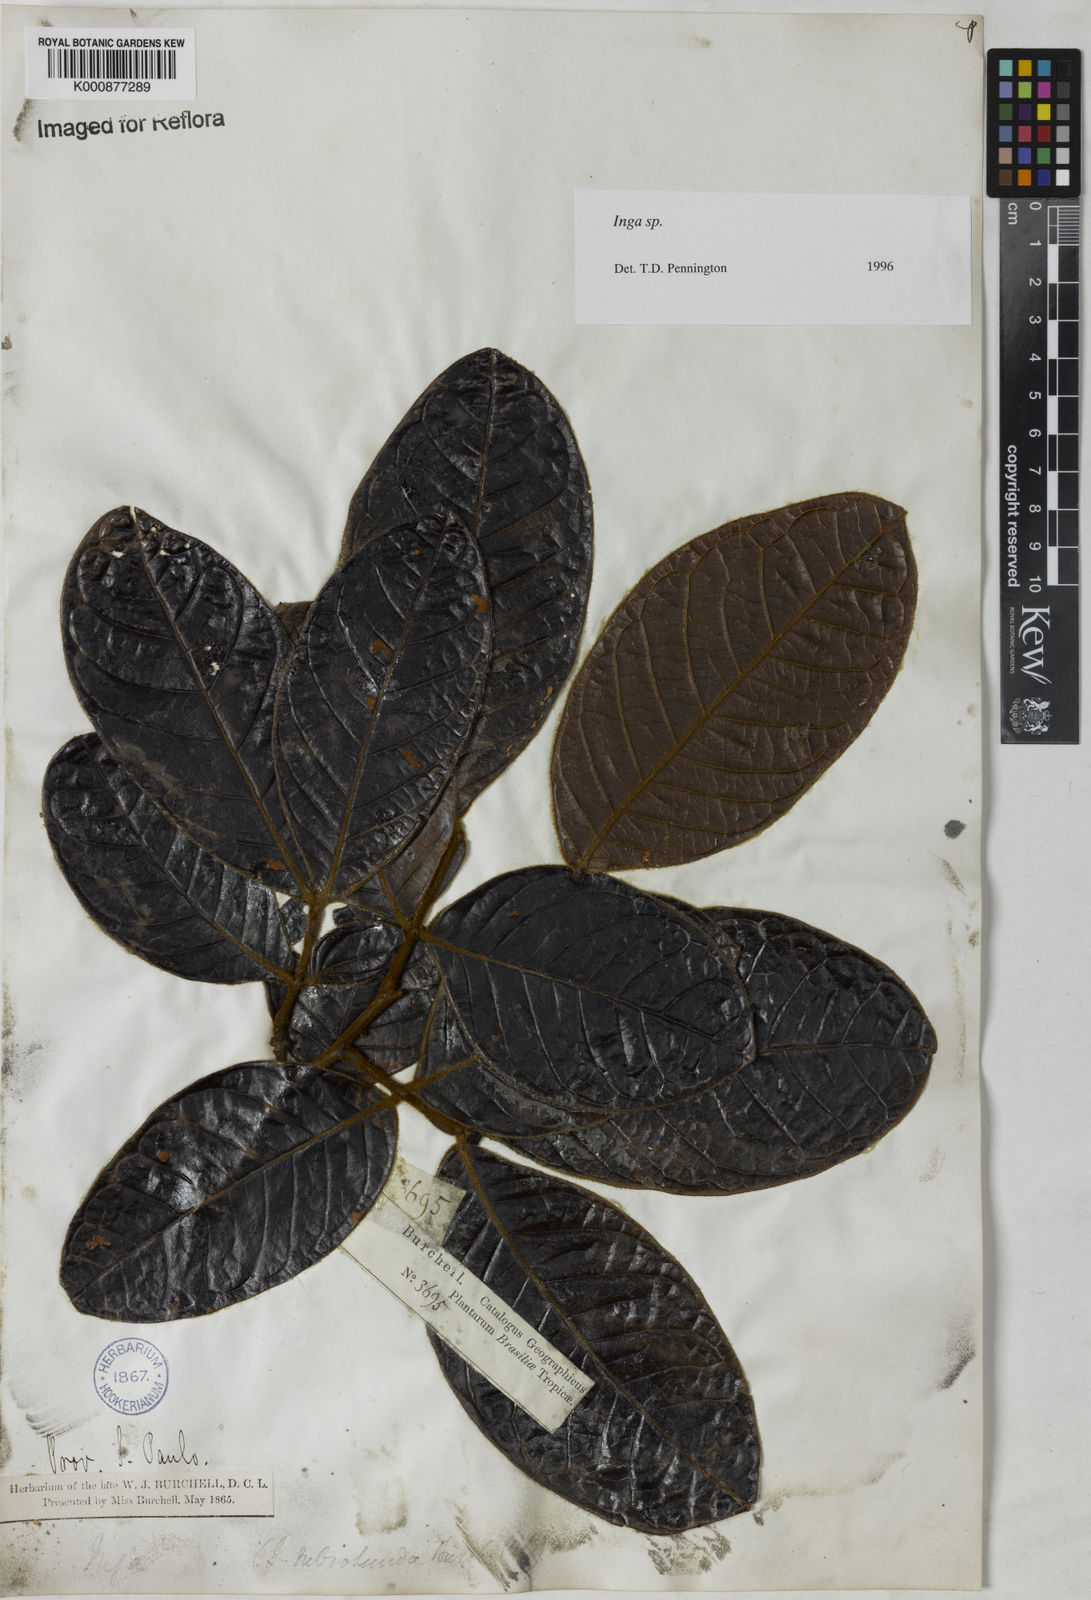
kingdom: Plantae
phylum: Tracheophyta
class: Magnoliopsida
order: Fabales
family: Fabaceae
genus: Inga
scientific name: Inga
